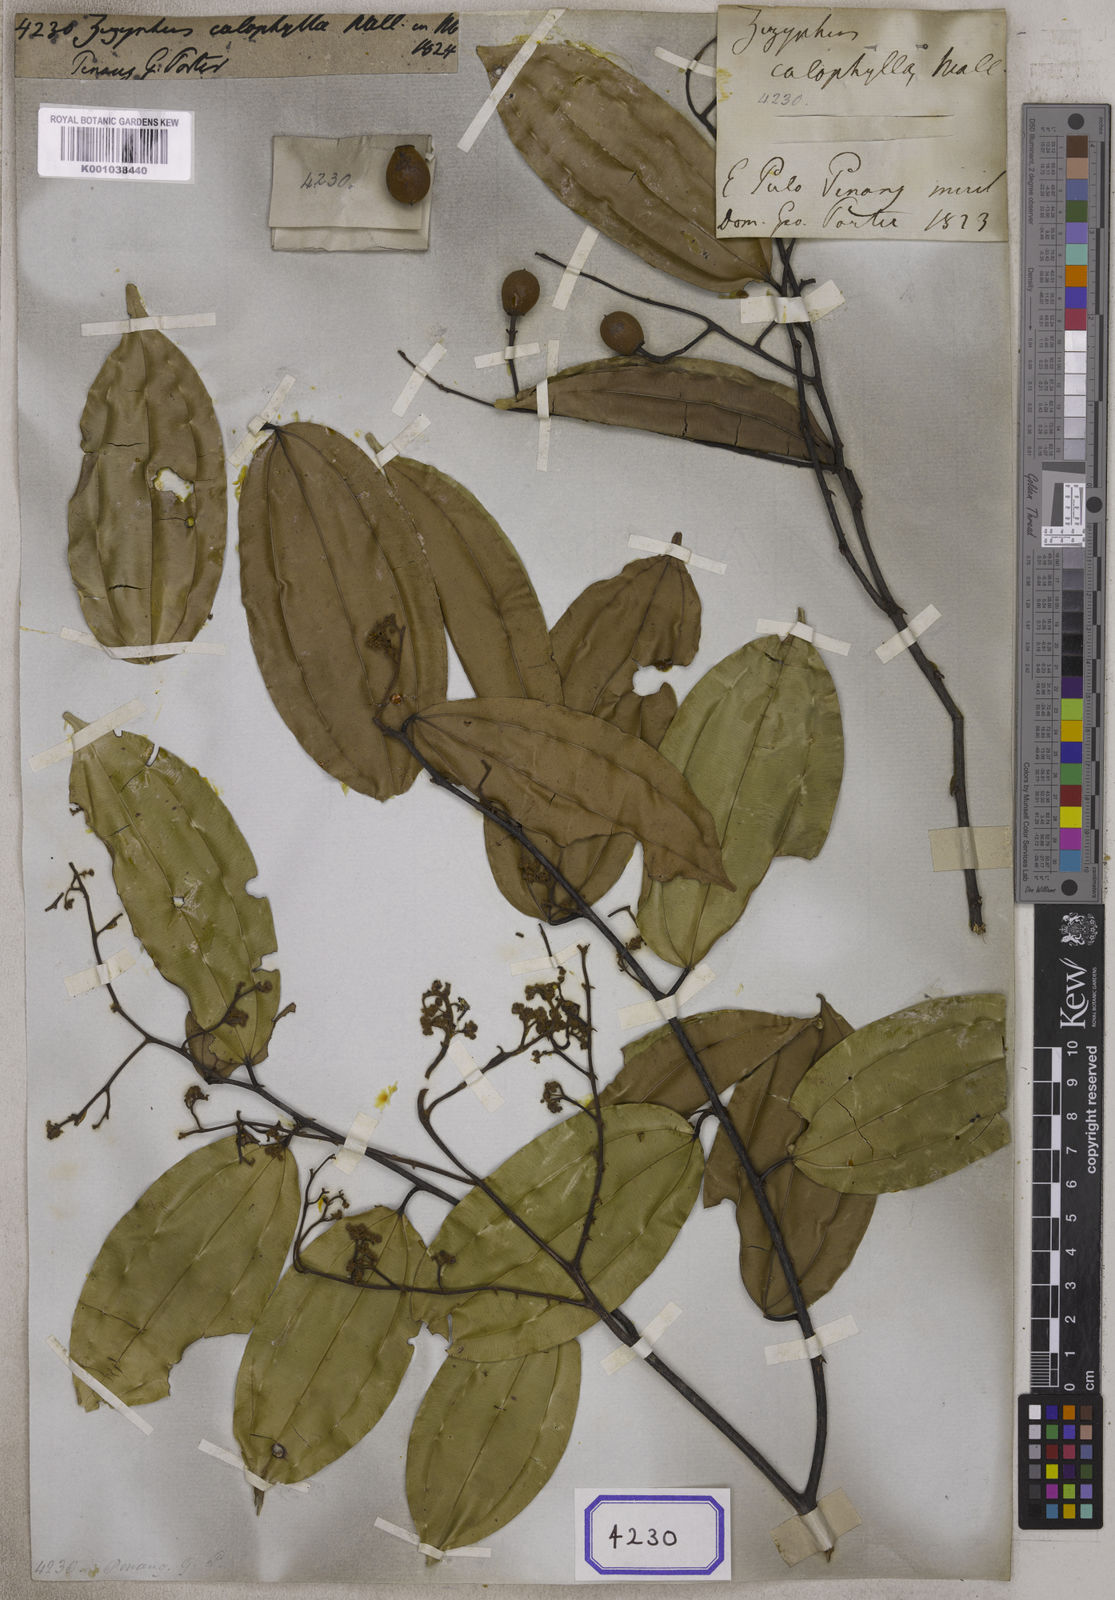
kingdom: Plantae
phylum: Tracheophyta
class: Magnoliopsida
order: Rosales
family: Rhamnaceae
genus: Ziziphus
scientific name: Ziziphus calophylla
